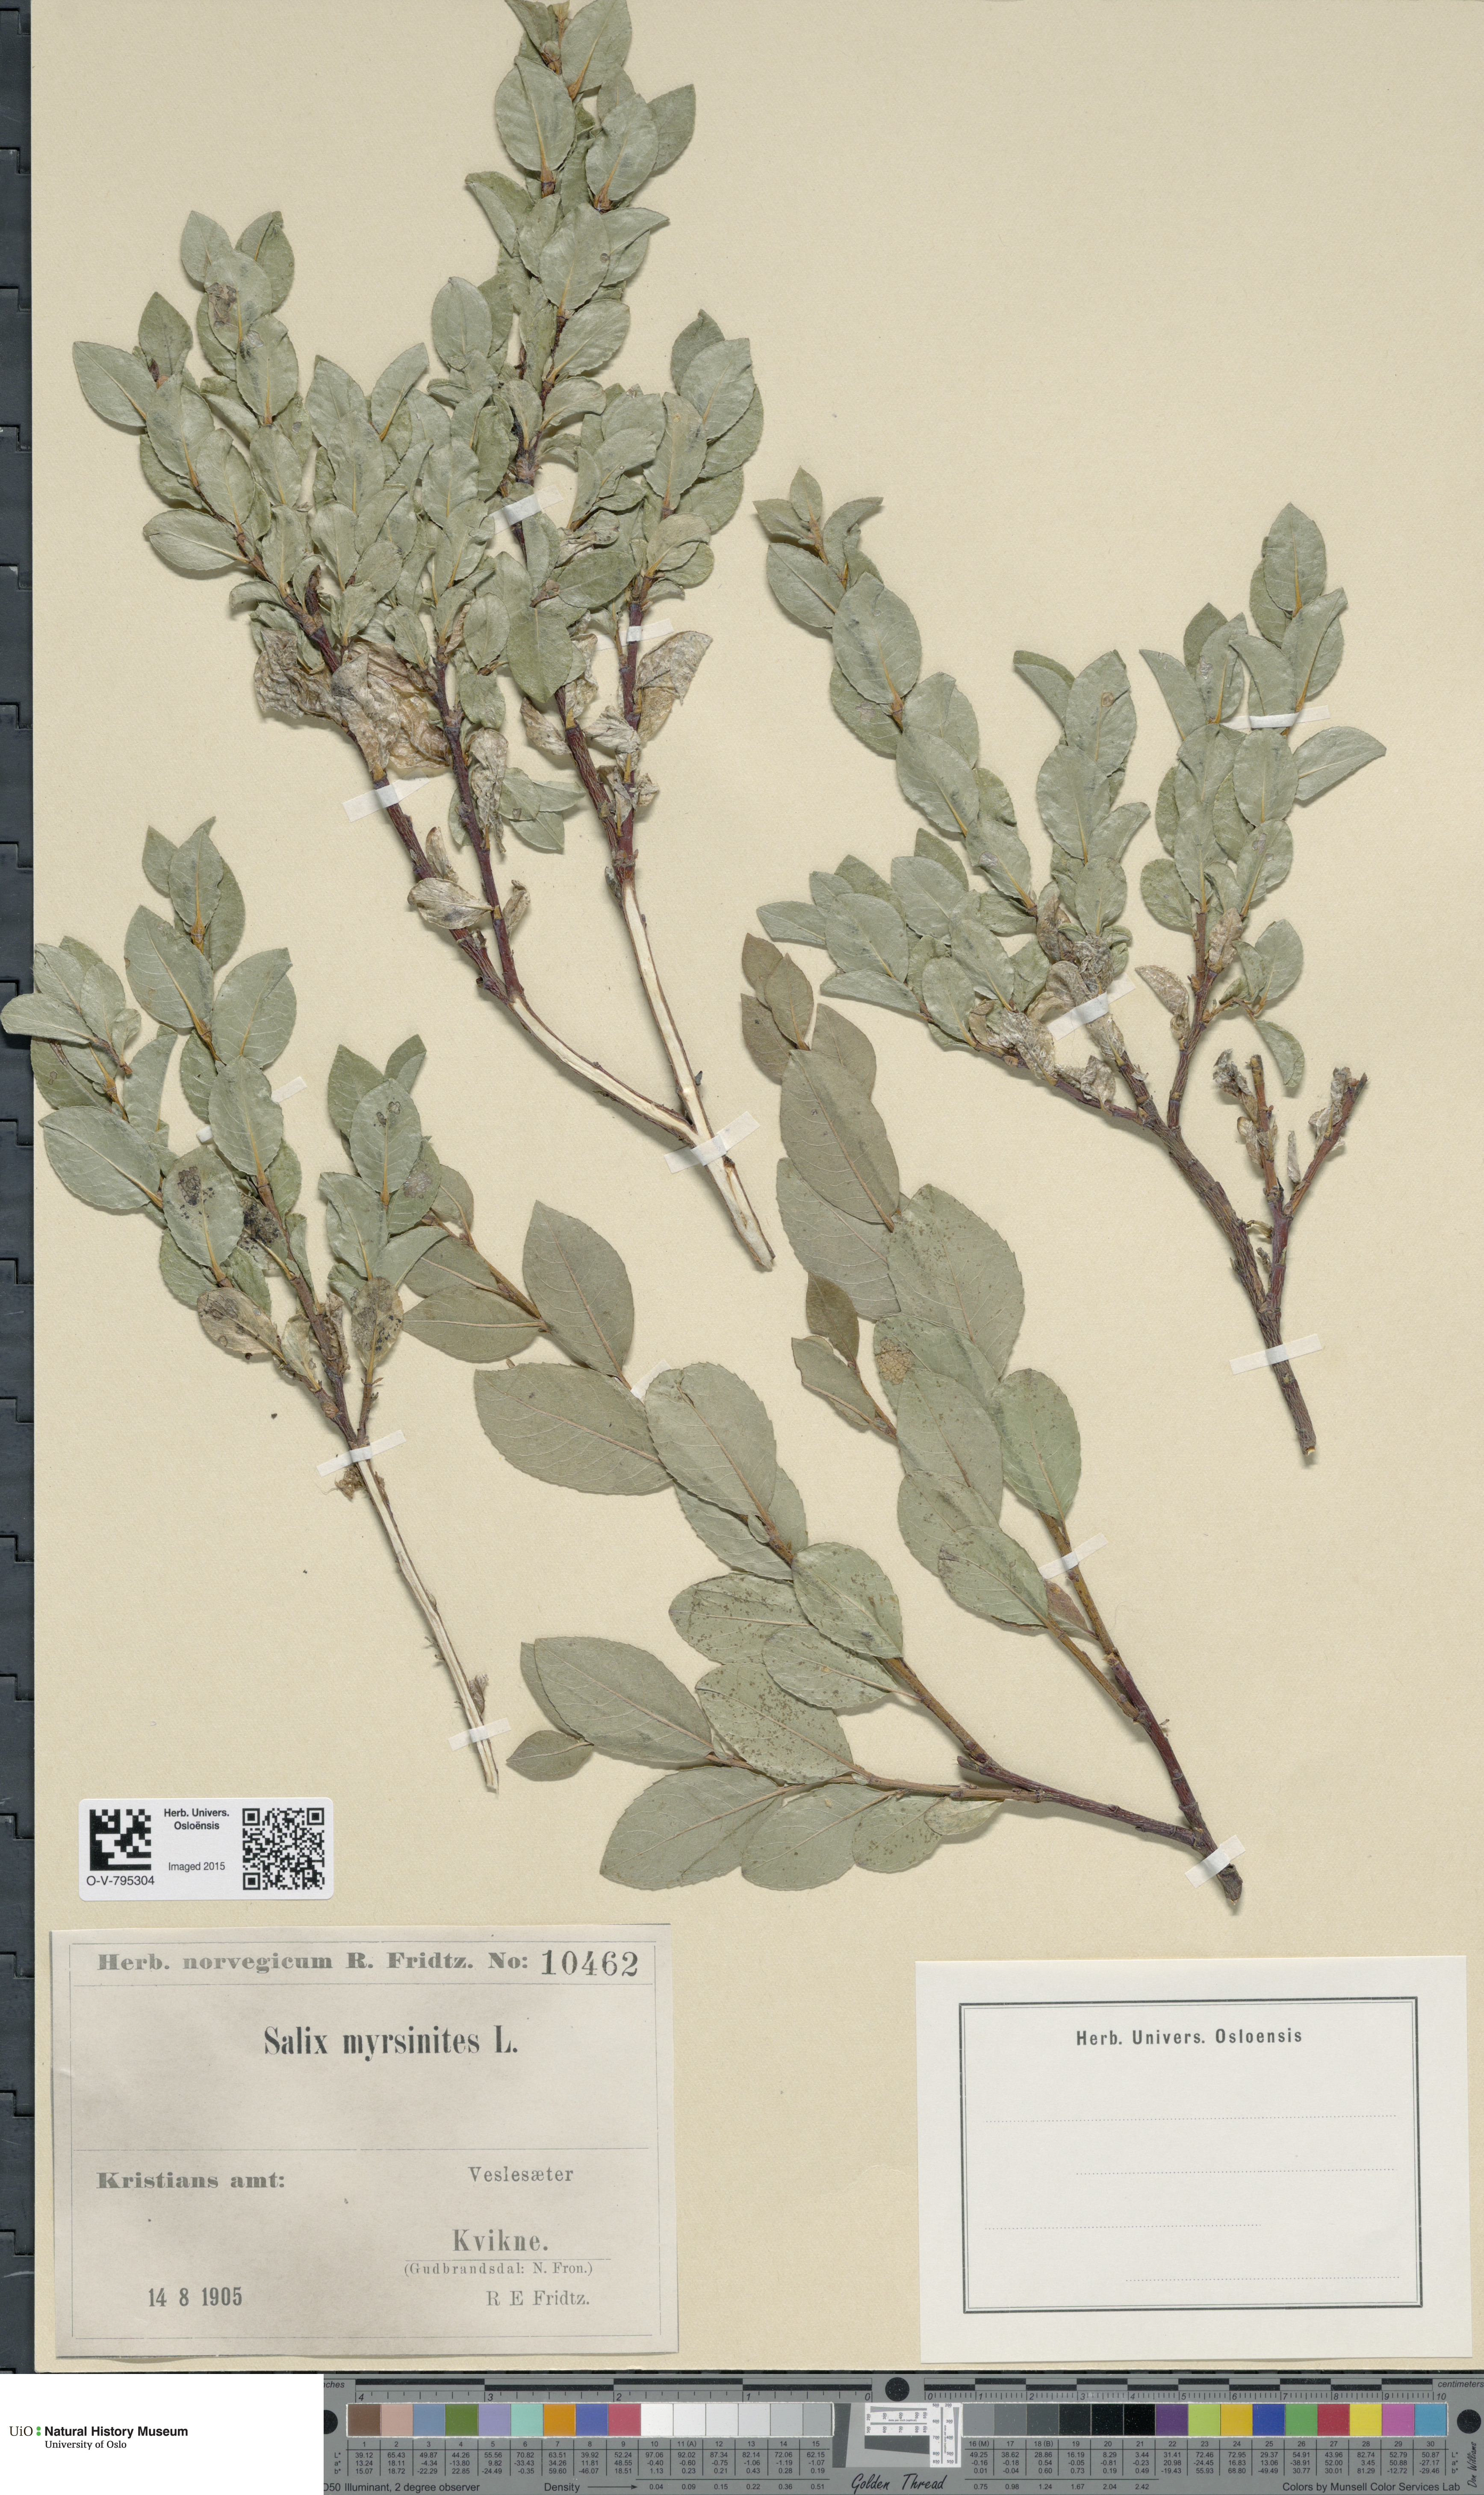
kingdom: Plantae
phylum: Tracheophyta
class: Magnoliopsida
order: Malpighiales
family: Salicaceae
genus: Salix
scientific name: Salix myrsinites
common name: Myrtle willow
